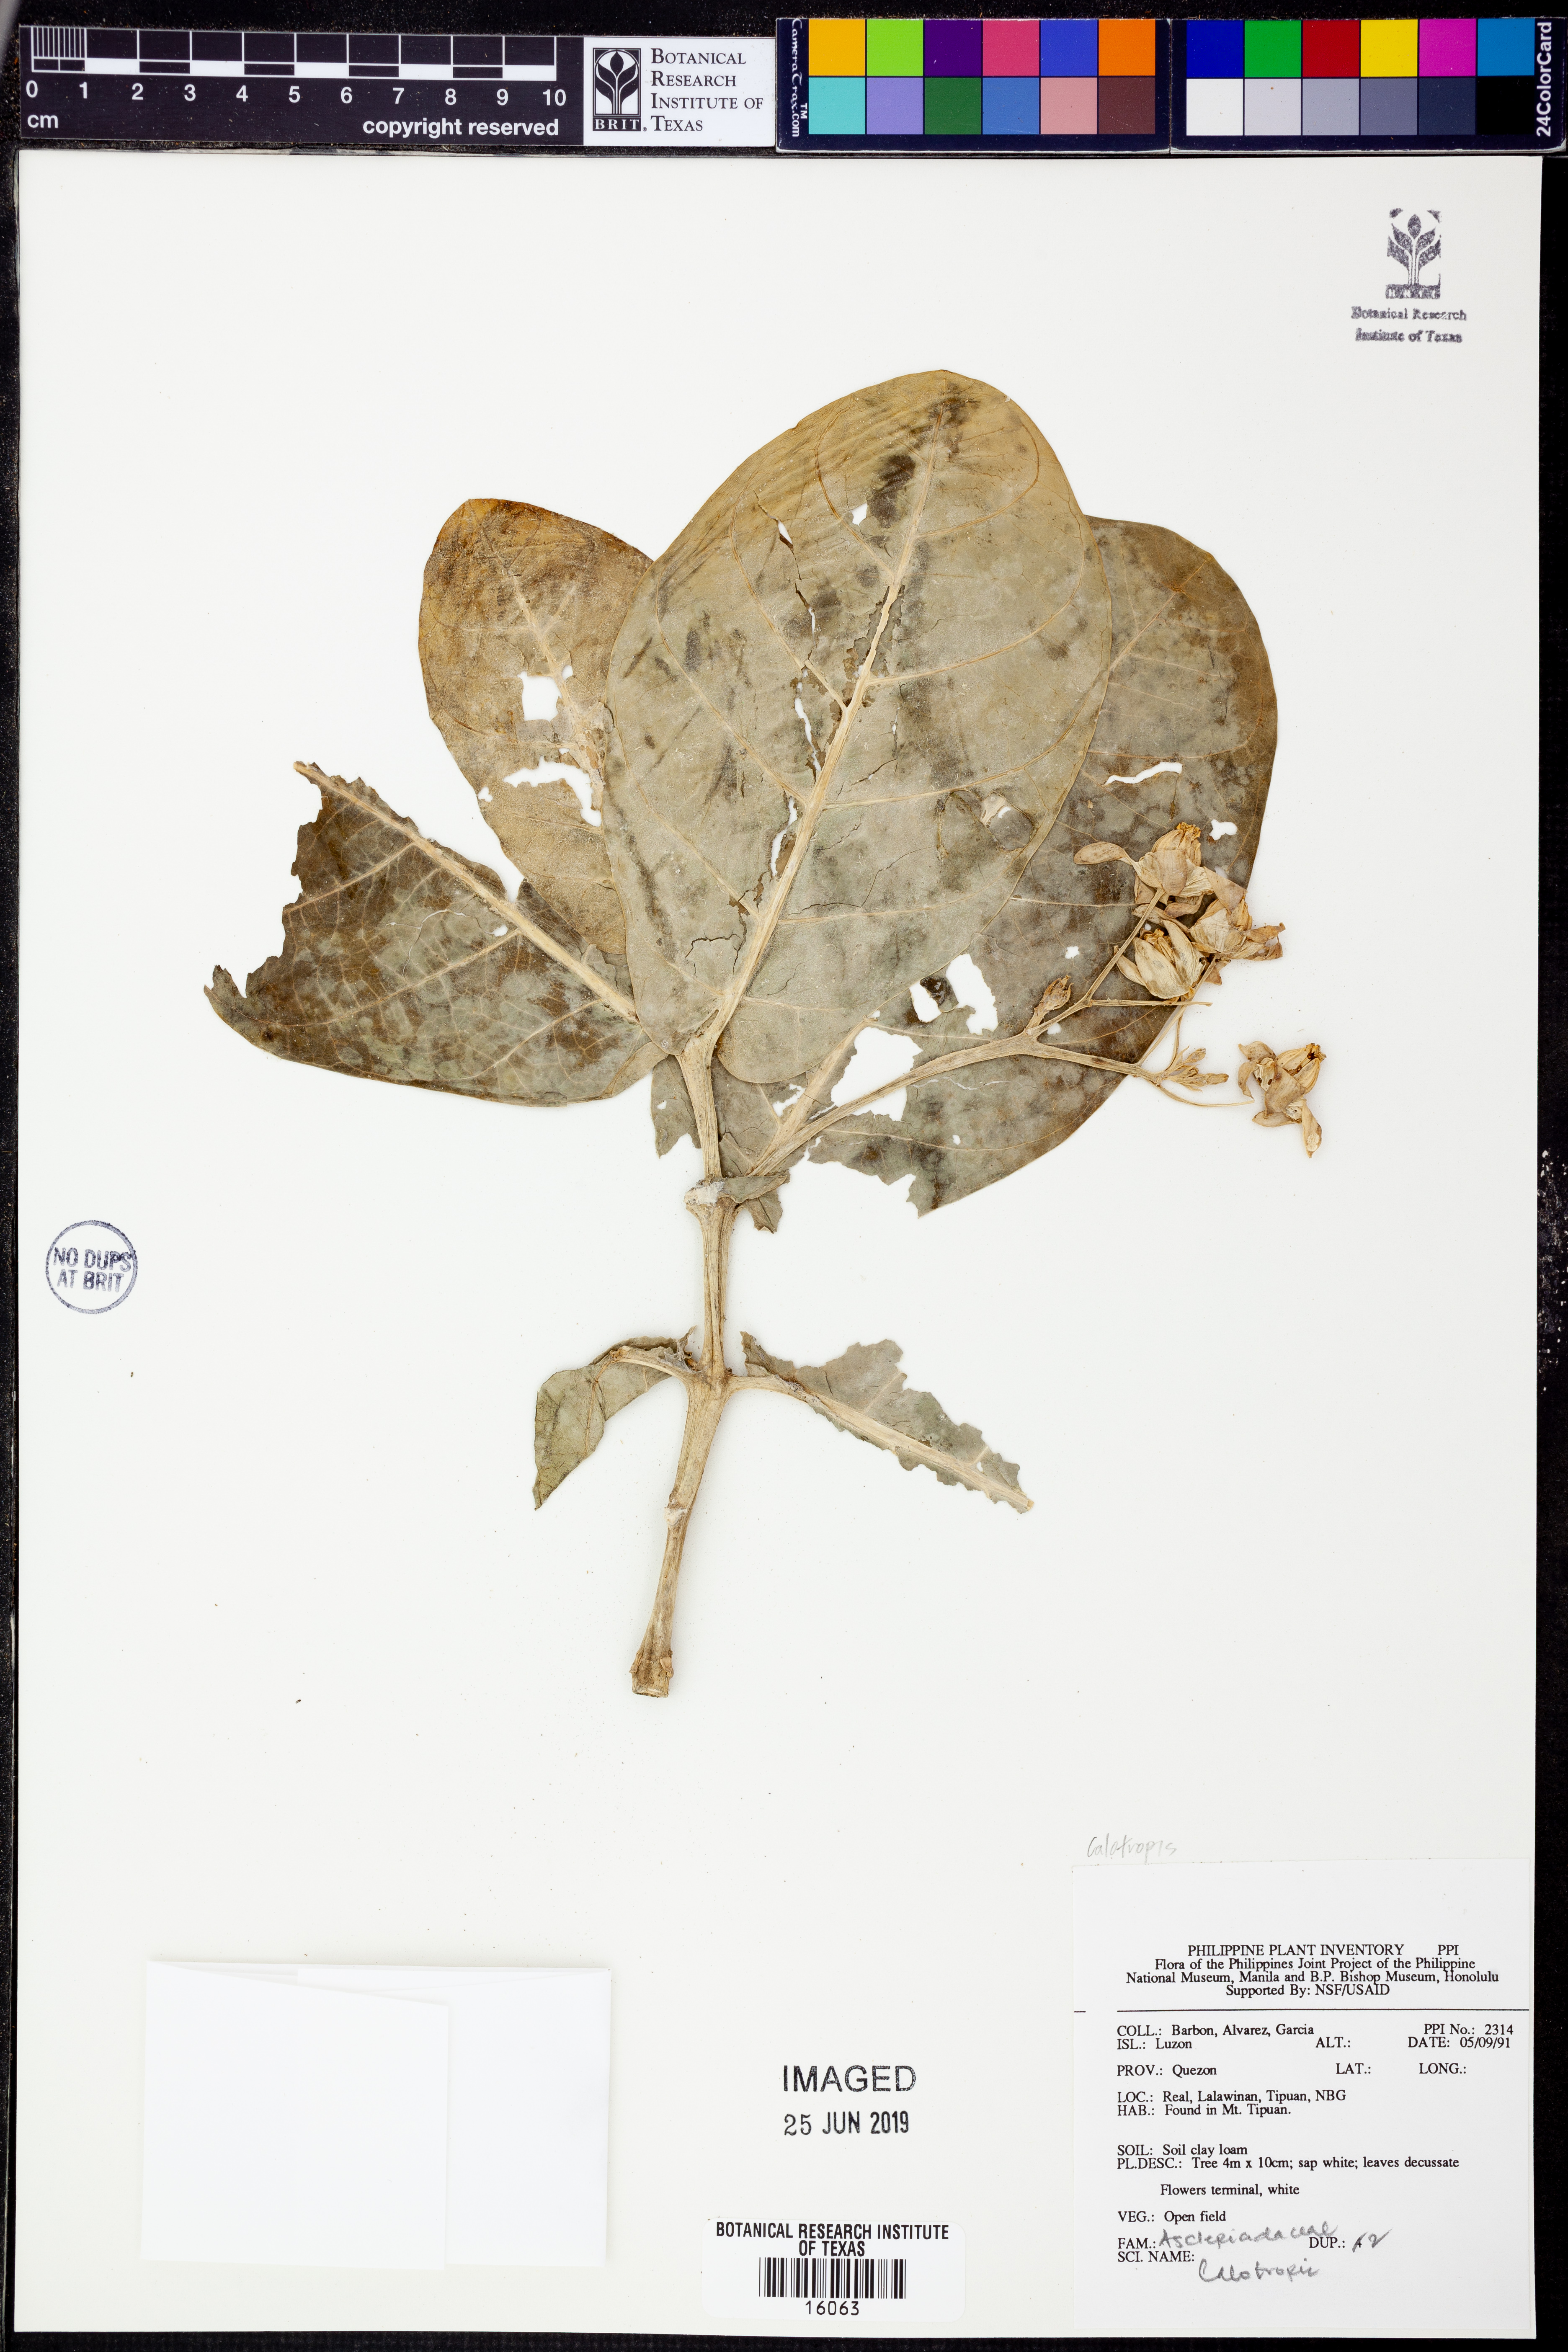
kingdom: Plantae
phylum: Tracheophyta
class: Magnoliopsida
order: Gentianales
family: Apocynaceae
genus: Calotropis
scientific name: Calotropis
